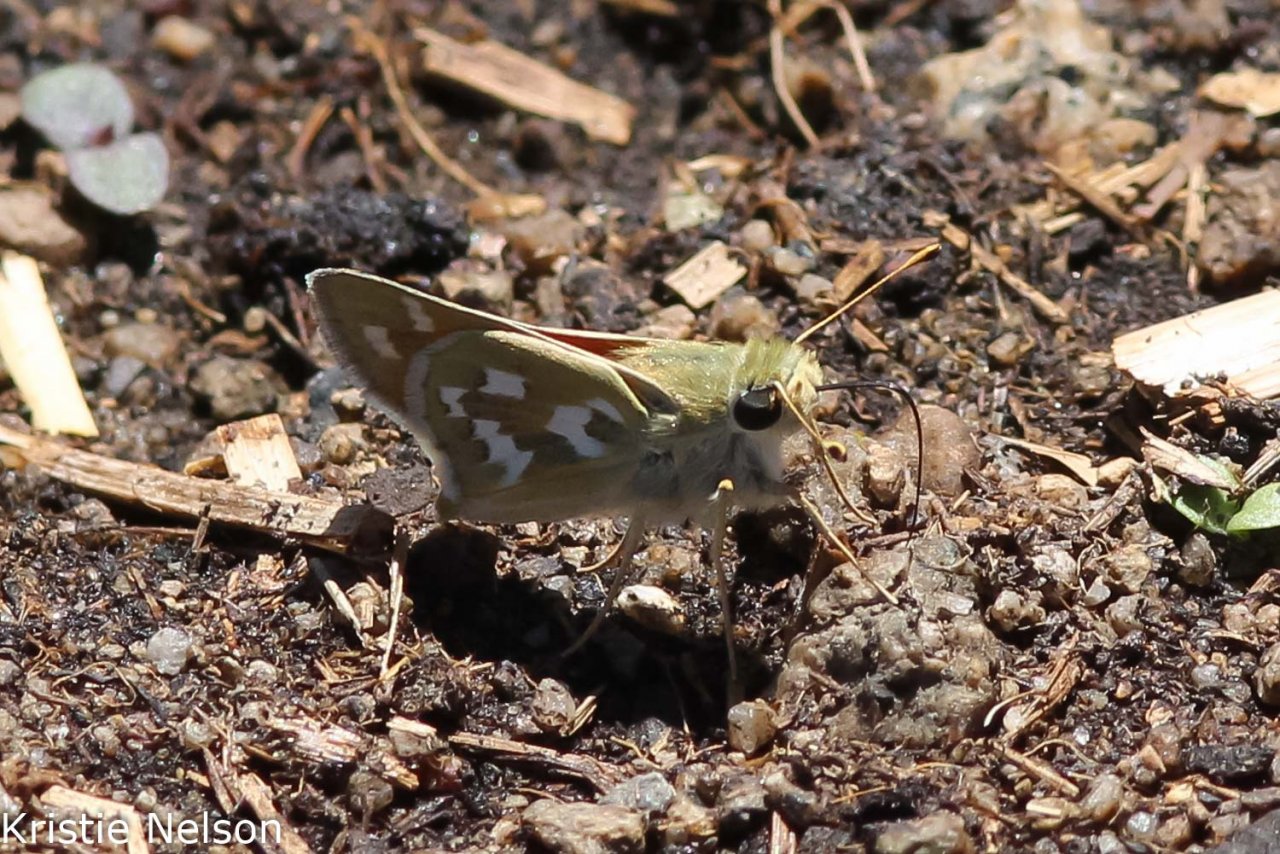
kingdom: Animalia
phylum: Arthropoda
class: Insecta
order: Lepidoptera
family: Hesperiidae
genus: Hesperia
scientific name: Hesperia comma
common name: Western Branded Skipper
